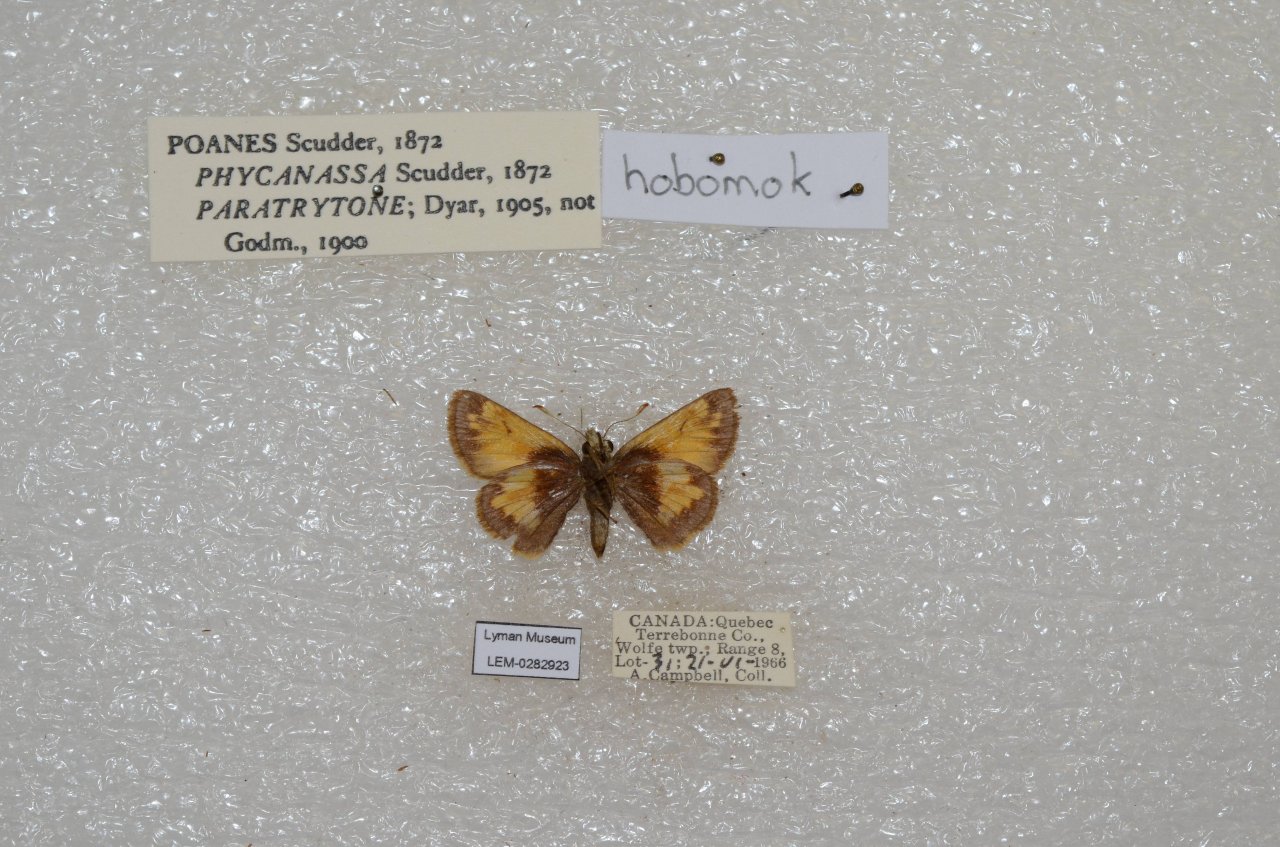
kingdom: Animalia
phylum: Arthropoda
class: Insecta
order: Lepidoptera
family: Hesperiidae
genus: Lon
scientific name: Lon hobomok
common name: Hobomok Skipper
